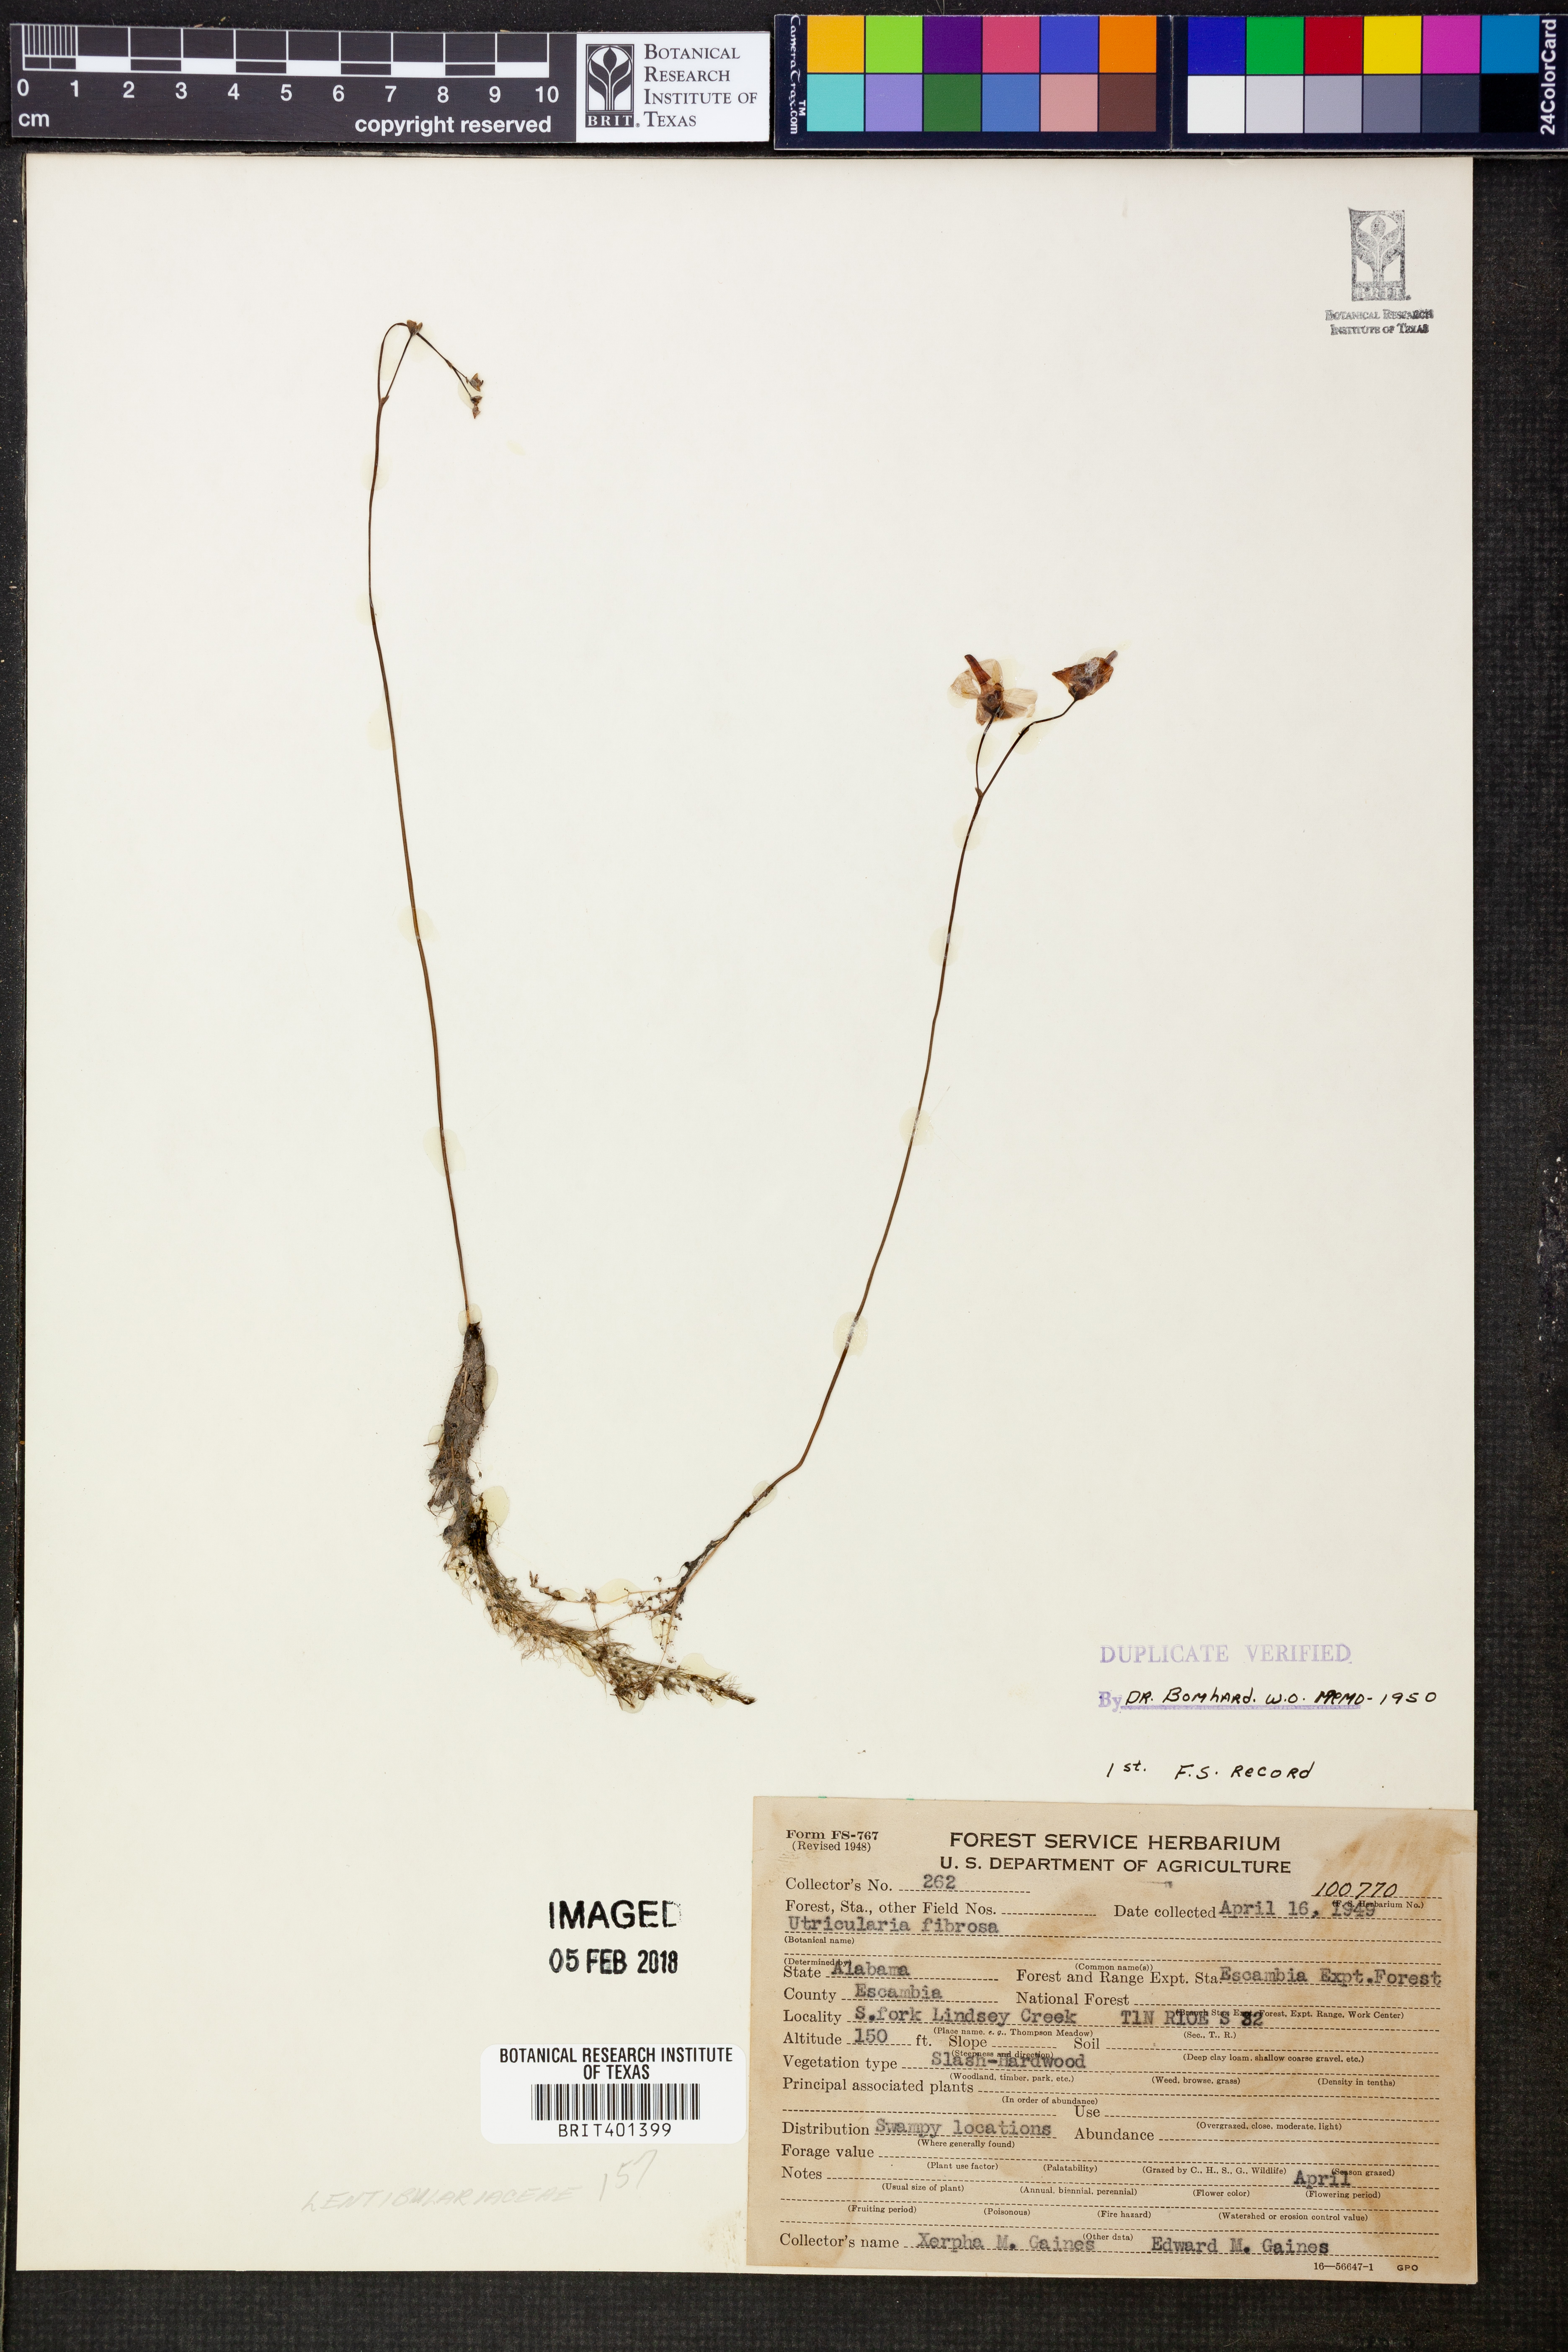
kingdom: Plantae
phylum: Tracheophyta
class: Magnoliopsida
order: Lamiales
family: Lentibulariaceae
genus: Utricularia
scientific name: Utricularia gibba
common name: Humped bladderwort
